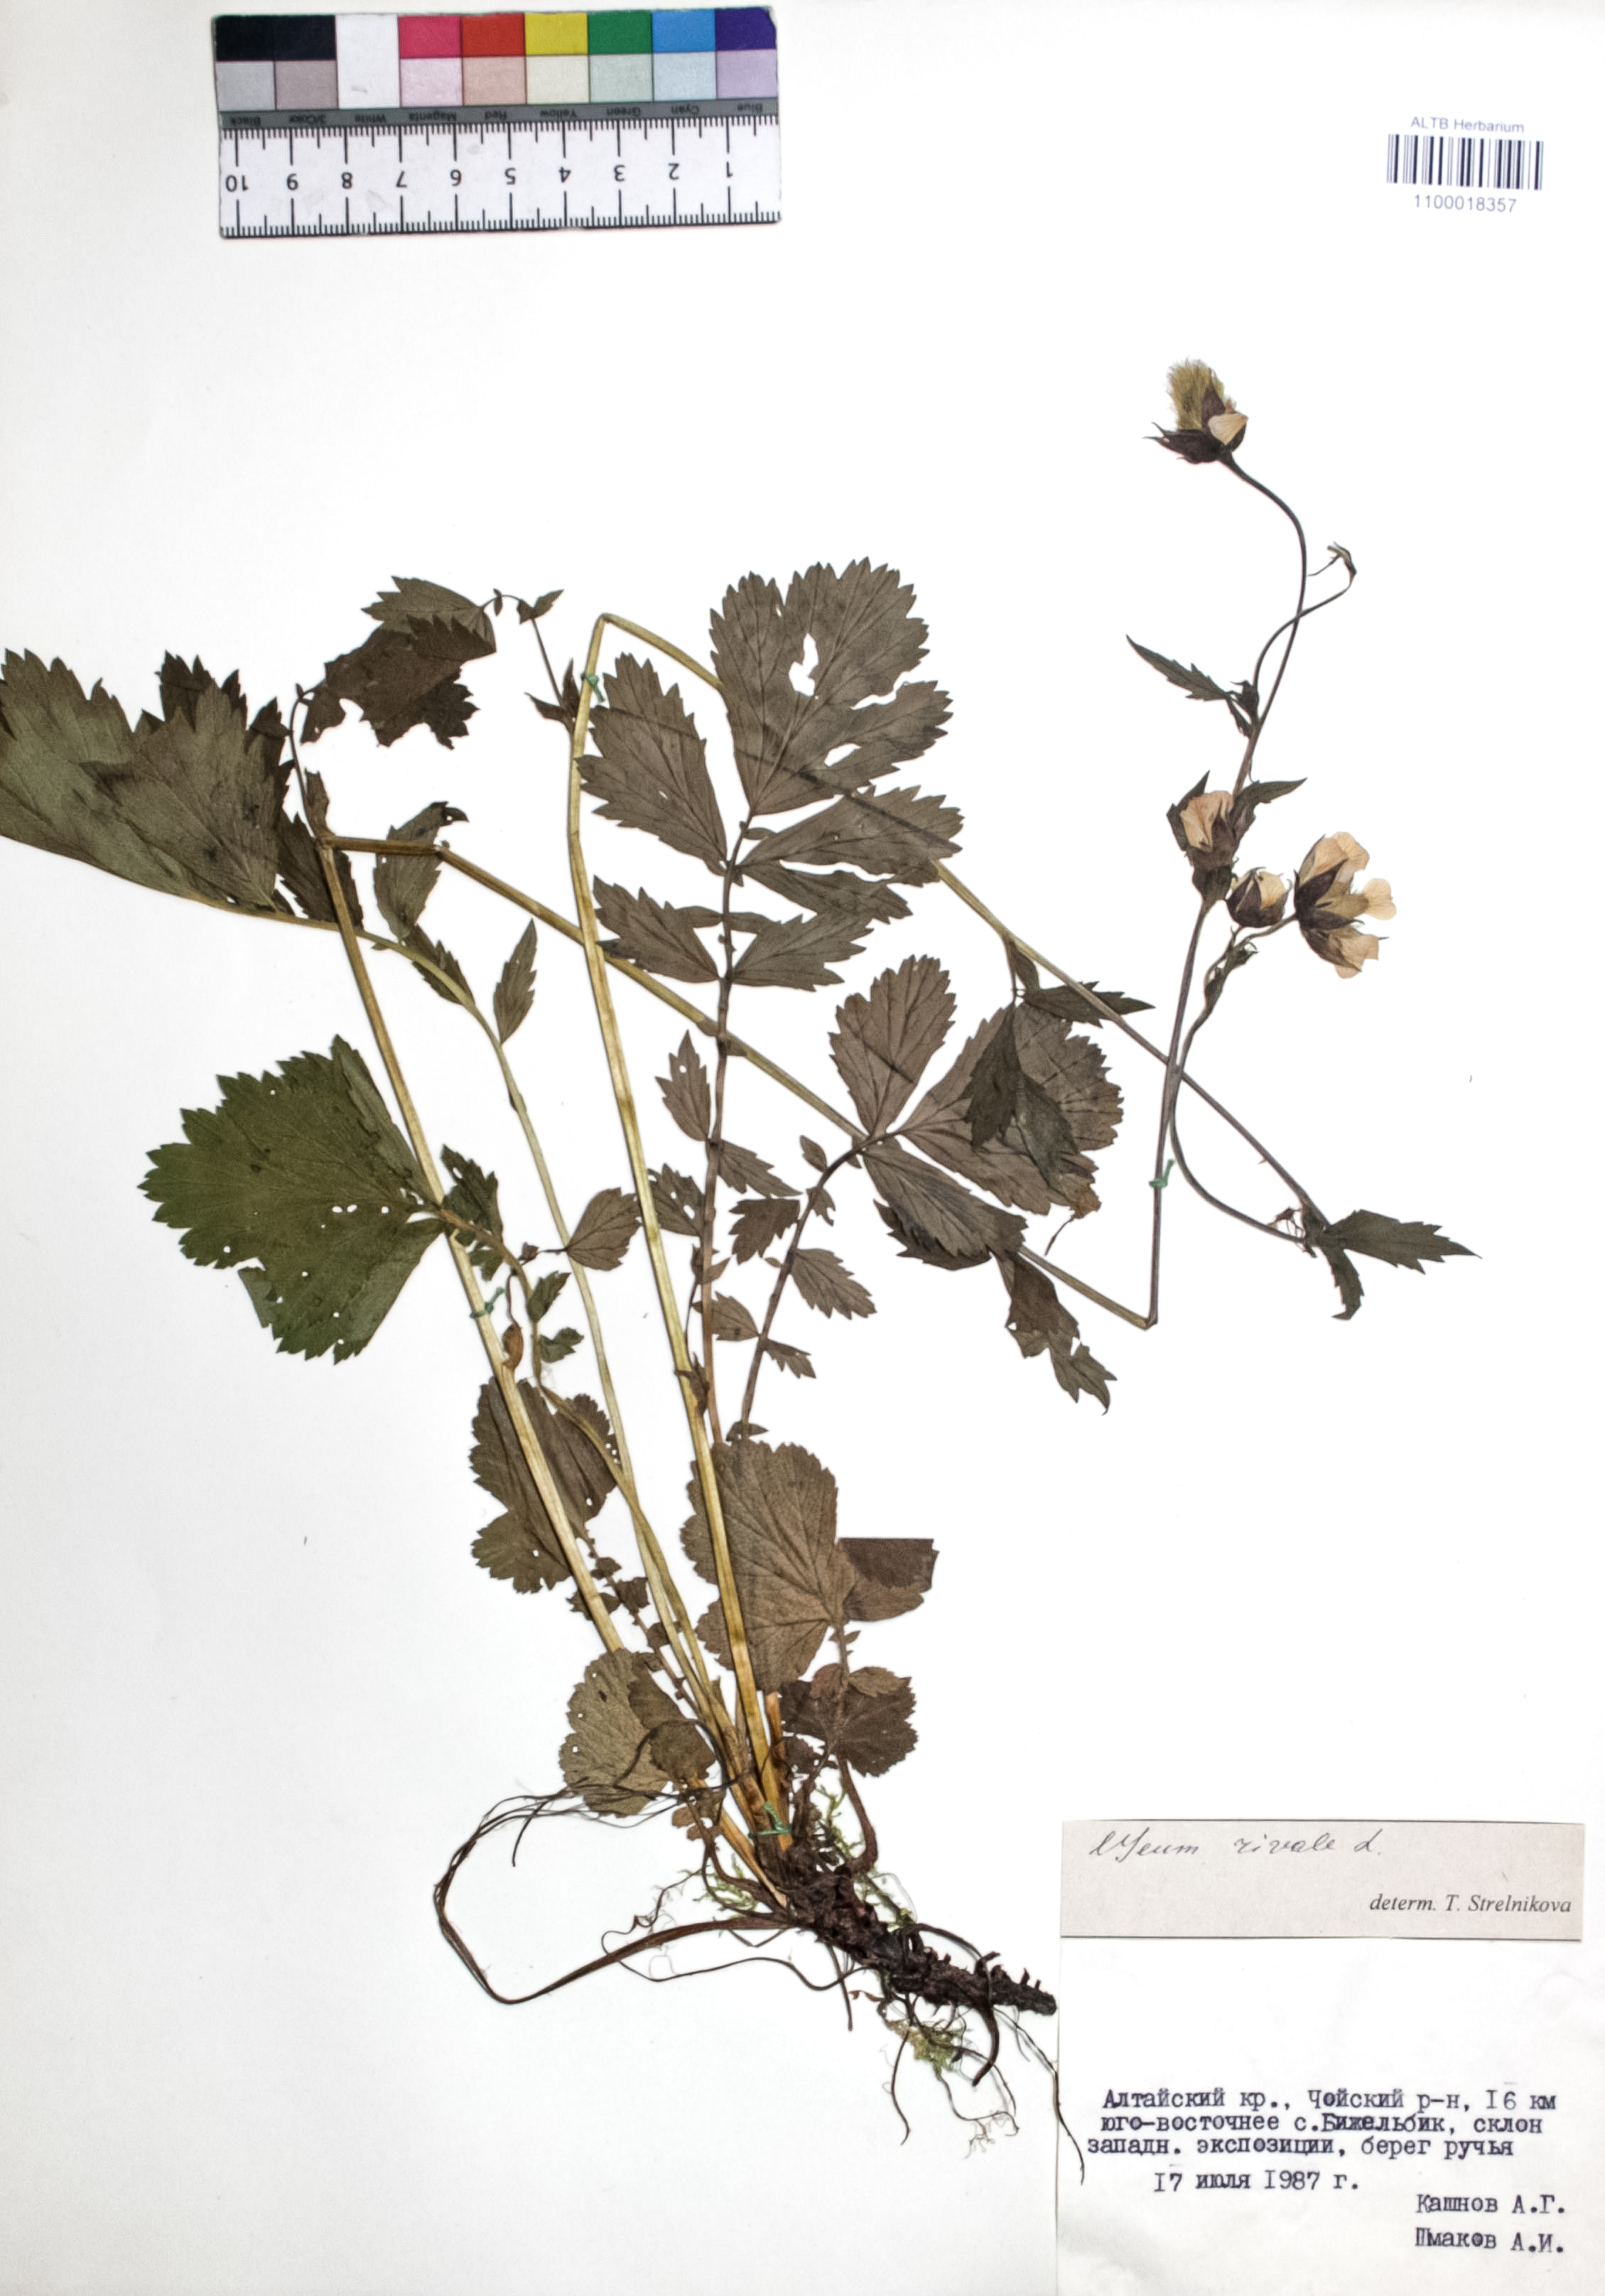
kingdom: Plantae
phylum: Tracheophyta
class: Magnoliopsida
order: Rosales
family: Rosaceae
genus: Geum
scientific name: Geum rivale
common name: Water avens
